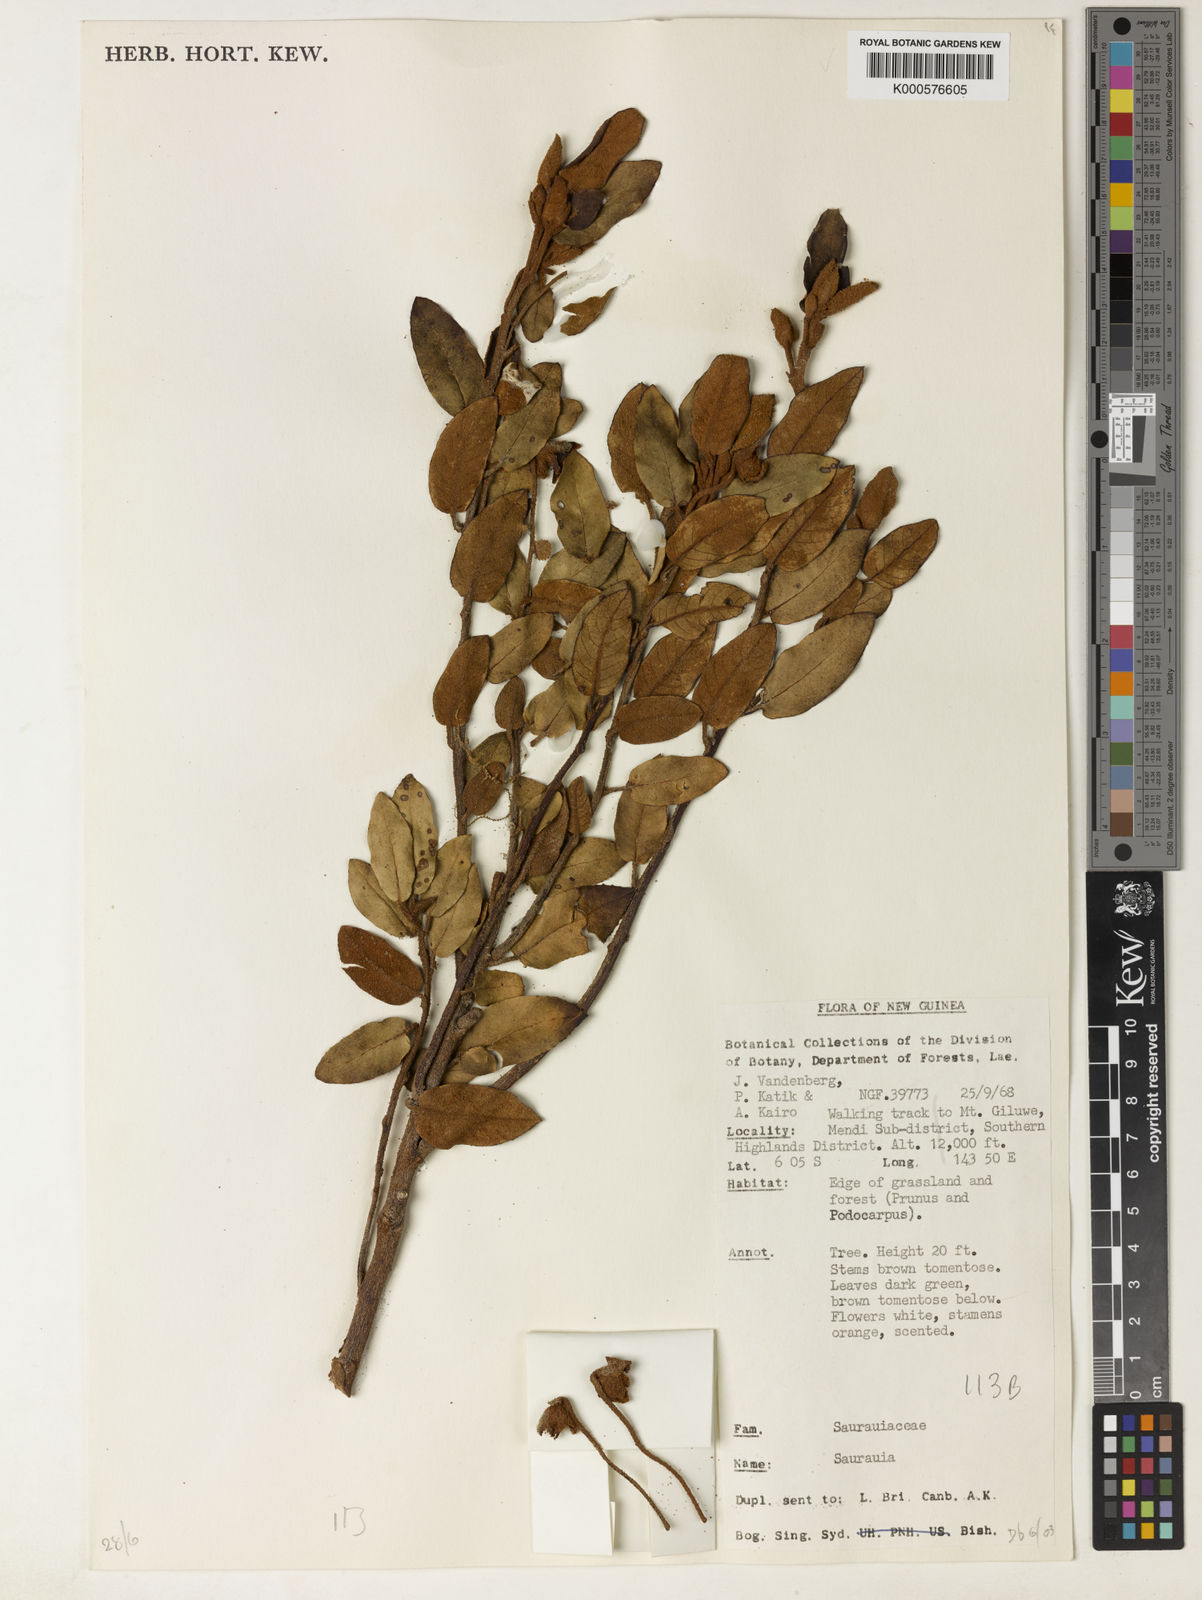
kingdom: Plantae
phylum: Tracheophyta
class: Magnoliopsida
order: Ericales
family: Actinidiaceae
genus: Saurauia
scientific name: Saurauia giluwensis
